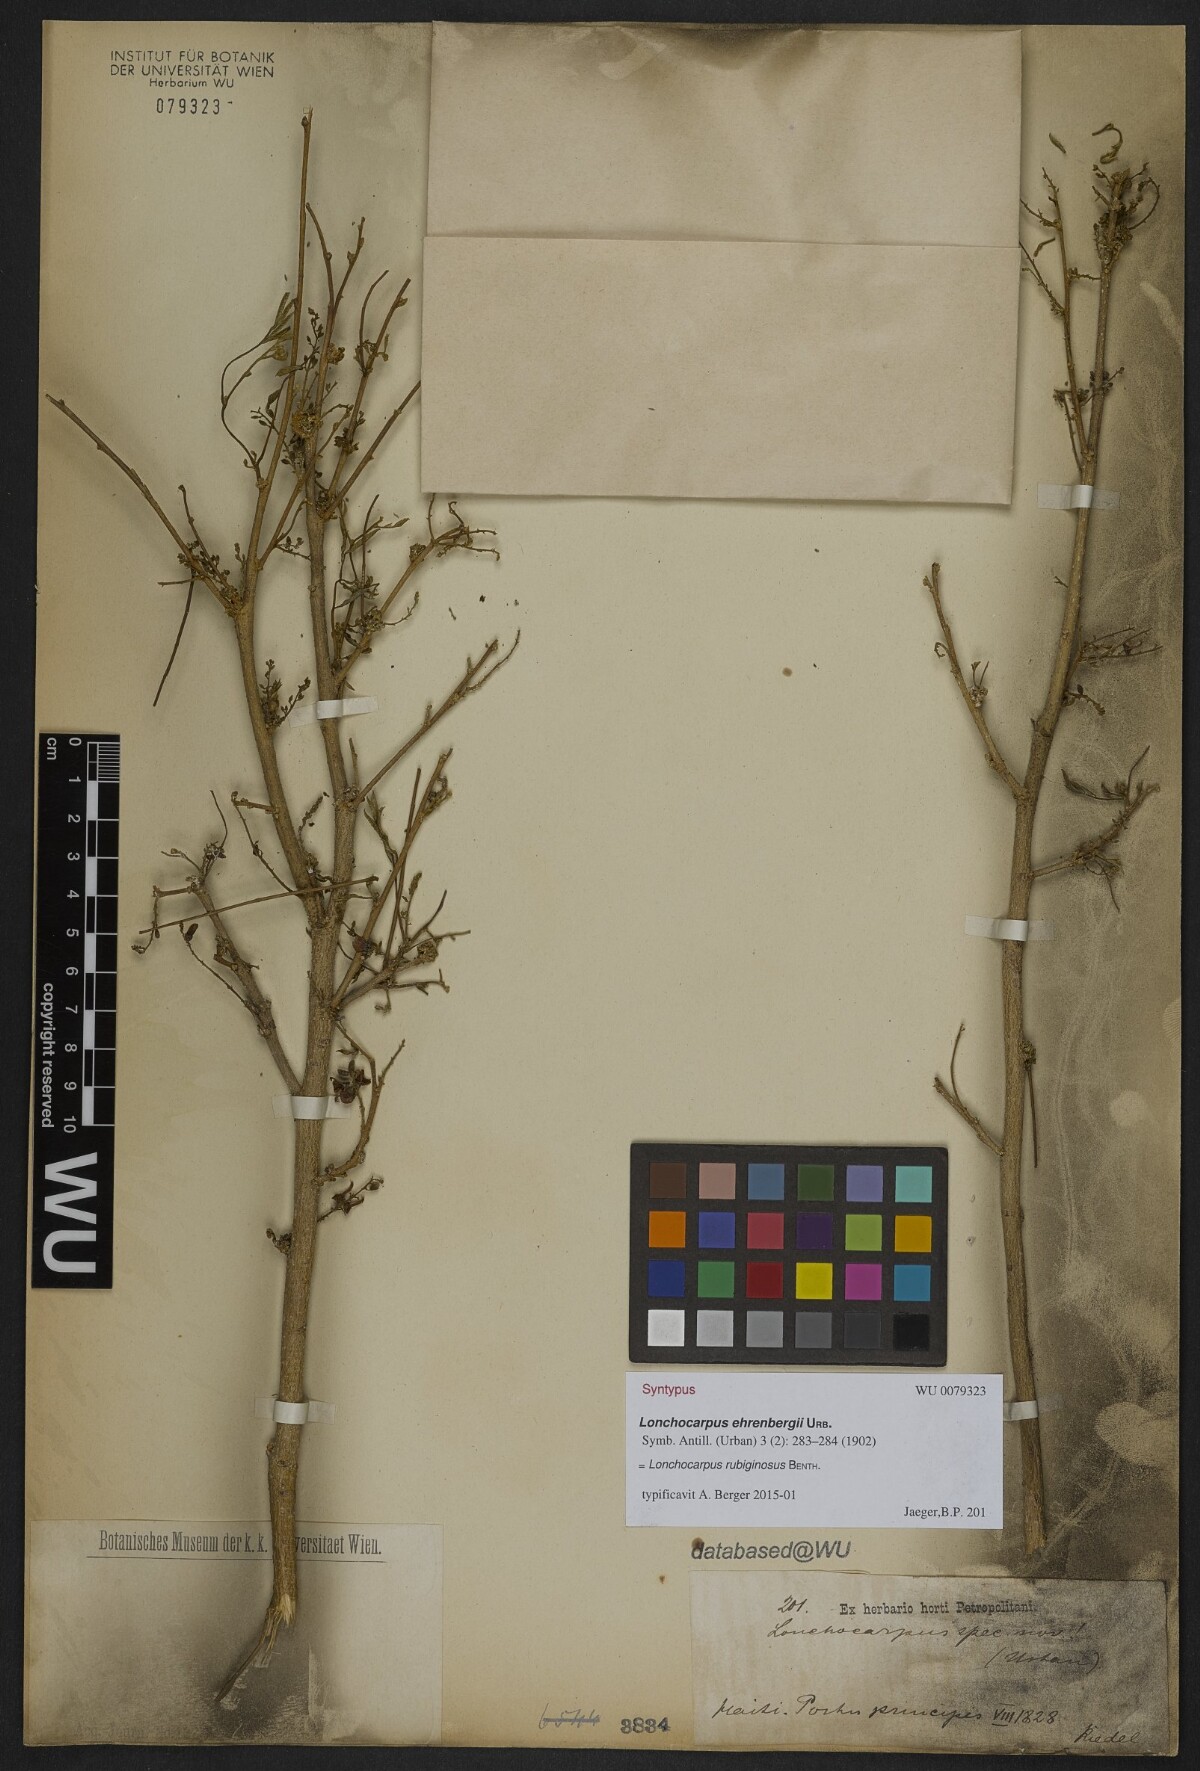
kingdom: Plantae
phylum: Tracheophyta
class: Magnoliopsida
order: Fabales
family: Fabaceae
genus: Lonchocarpus
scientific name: Lonchocarpus neurophyllus
